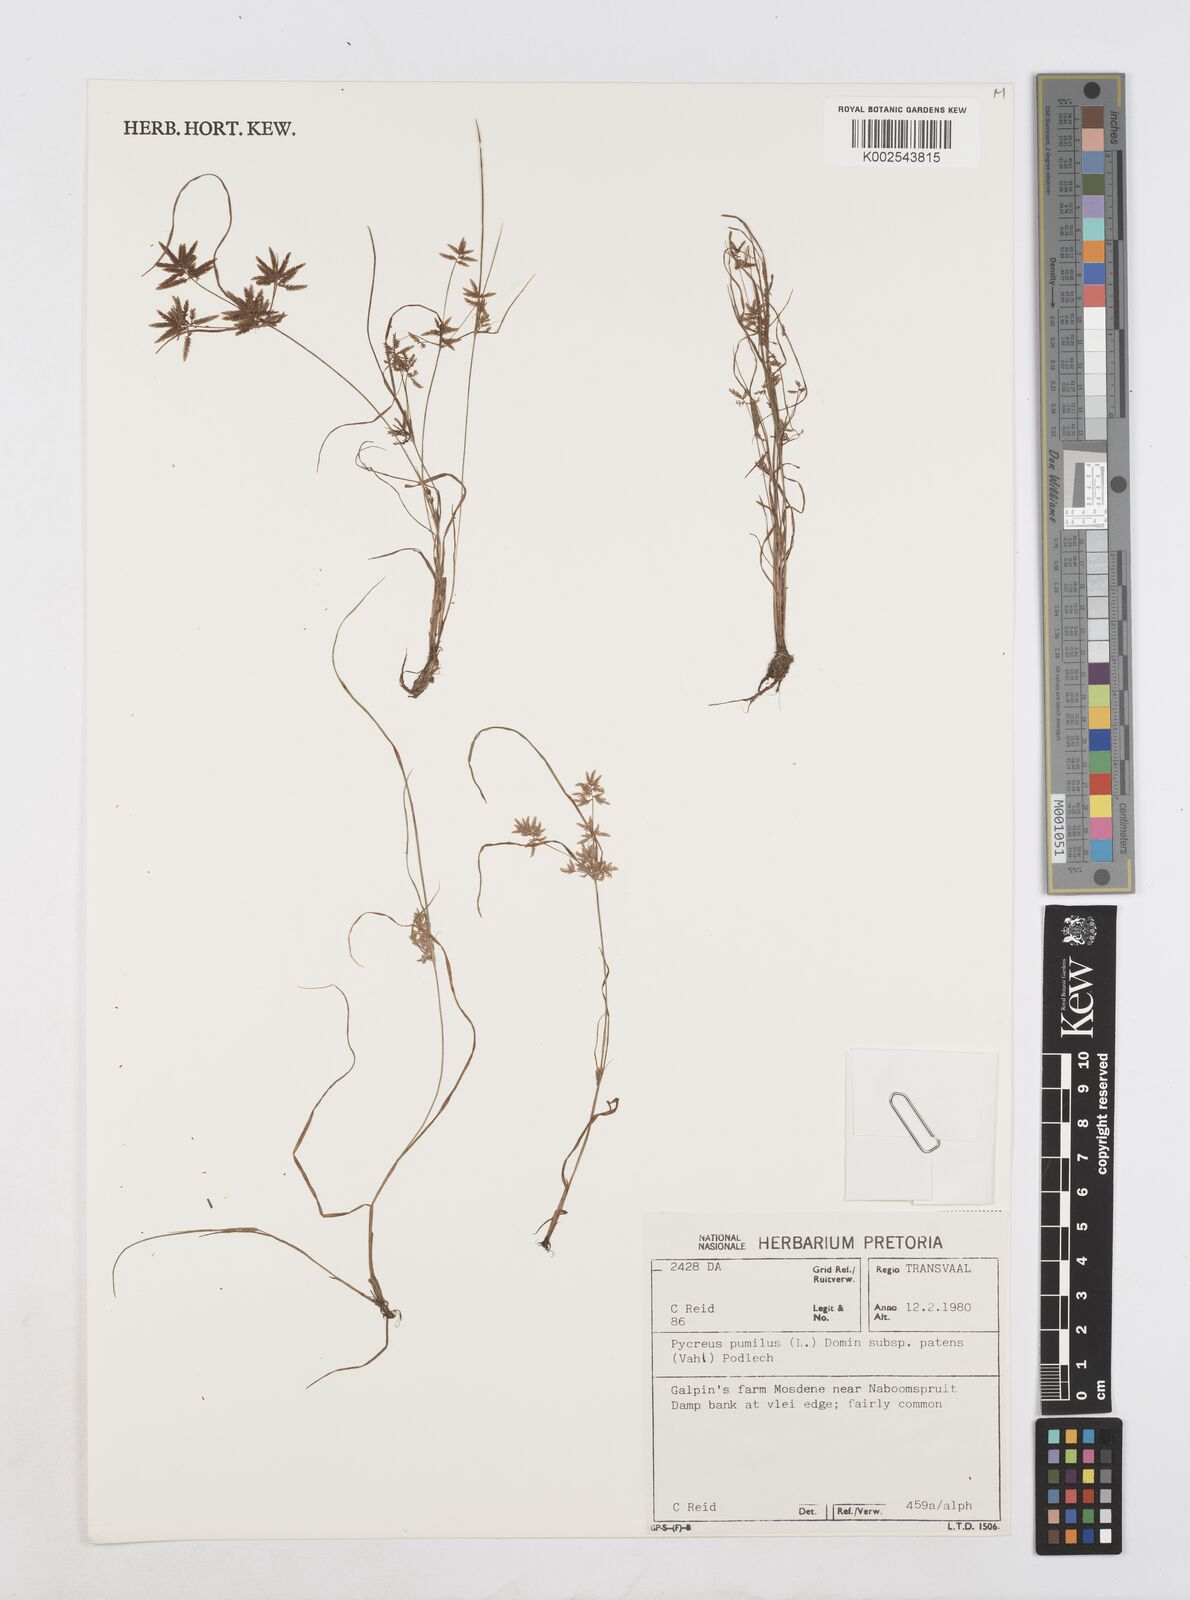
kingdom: Plantae
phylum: Tracheophyta
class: Liliopsida
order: Poales
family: Cyperaceae
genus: Cyperus
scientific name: Cyperus pumilus
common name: Low flatsedge
